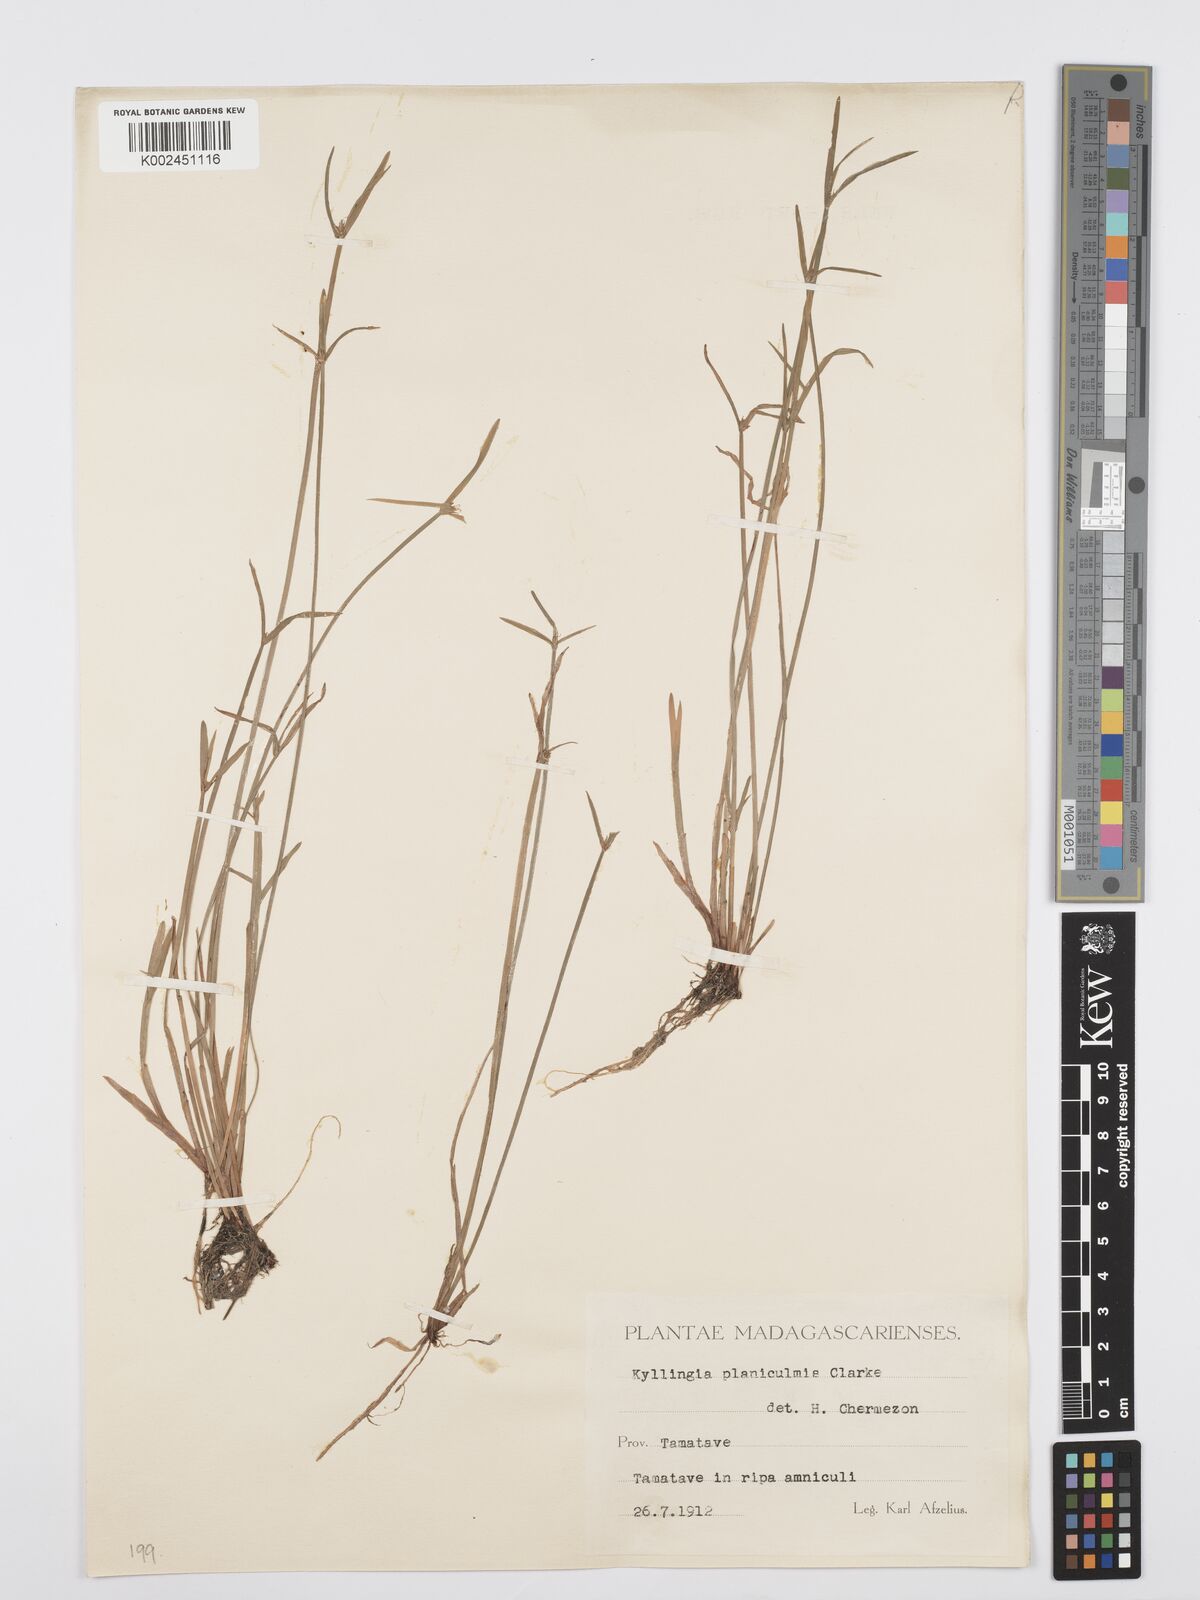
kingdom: Plantae
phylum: Tracheophyta
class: Liliopsida
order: Poales
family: Cyperaceae
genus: Cyperus
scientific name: Cyperus nemoralis
